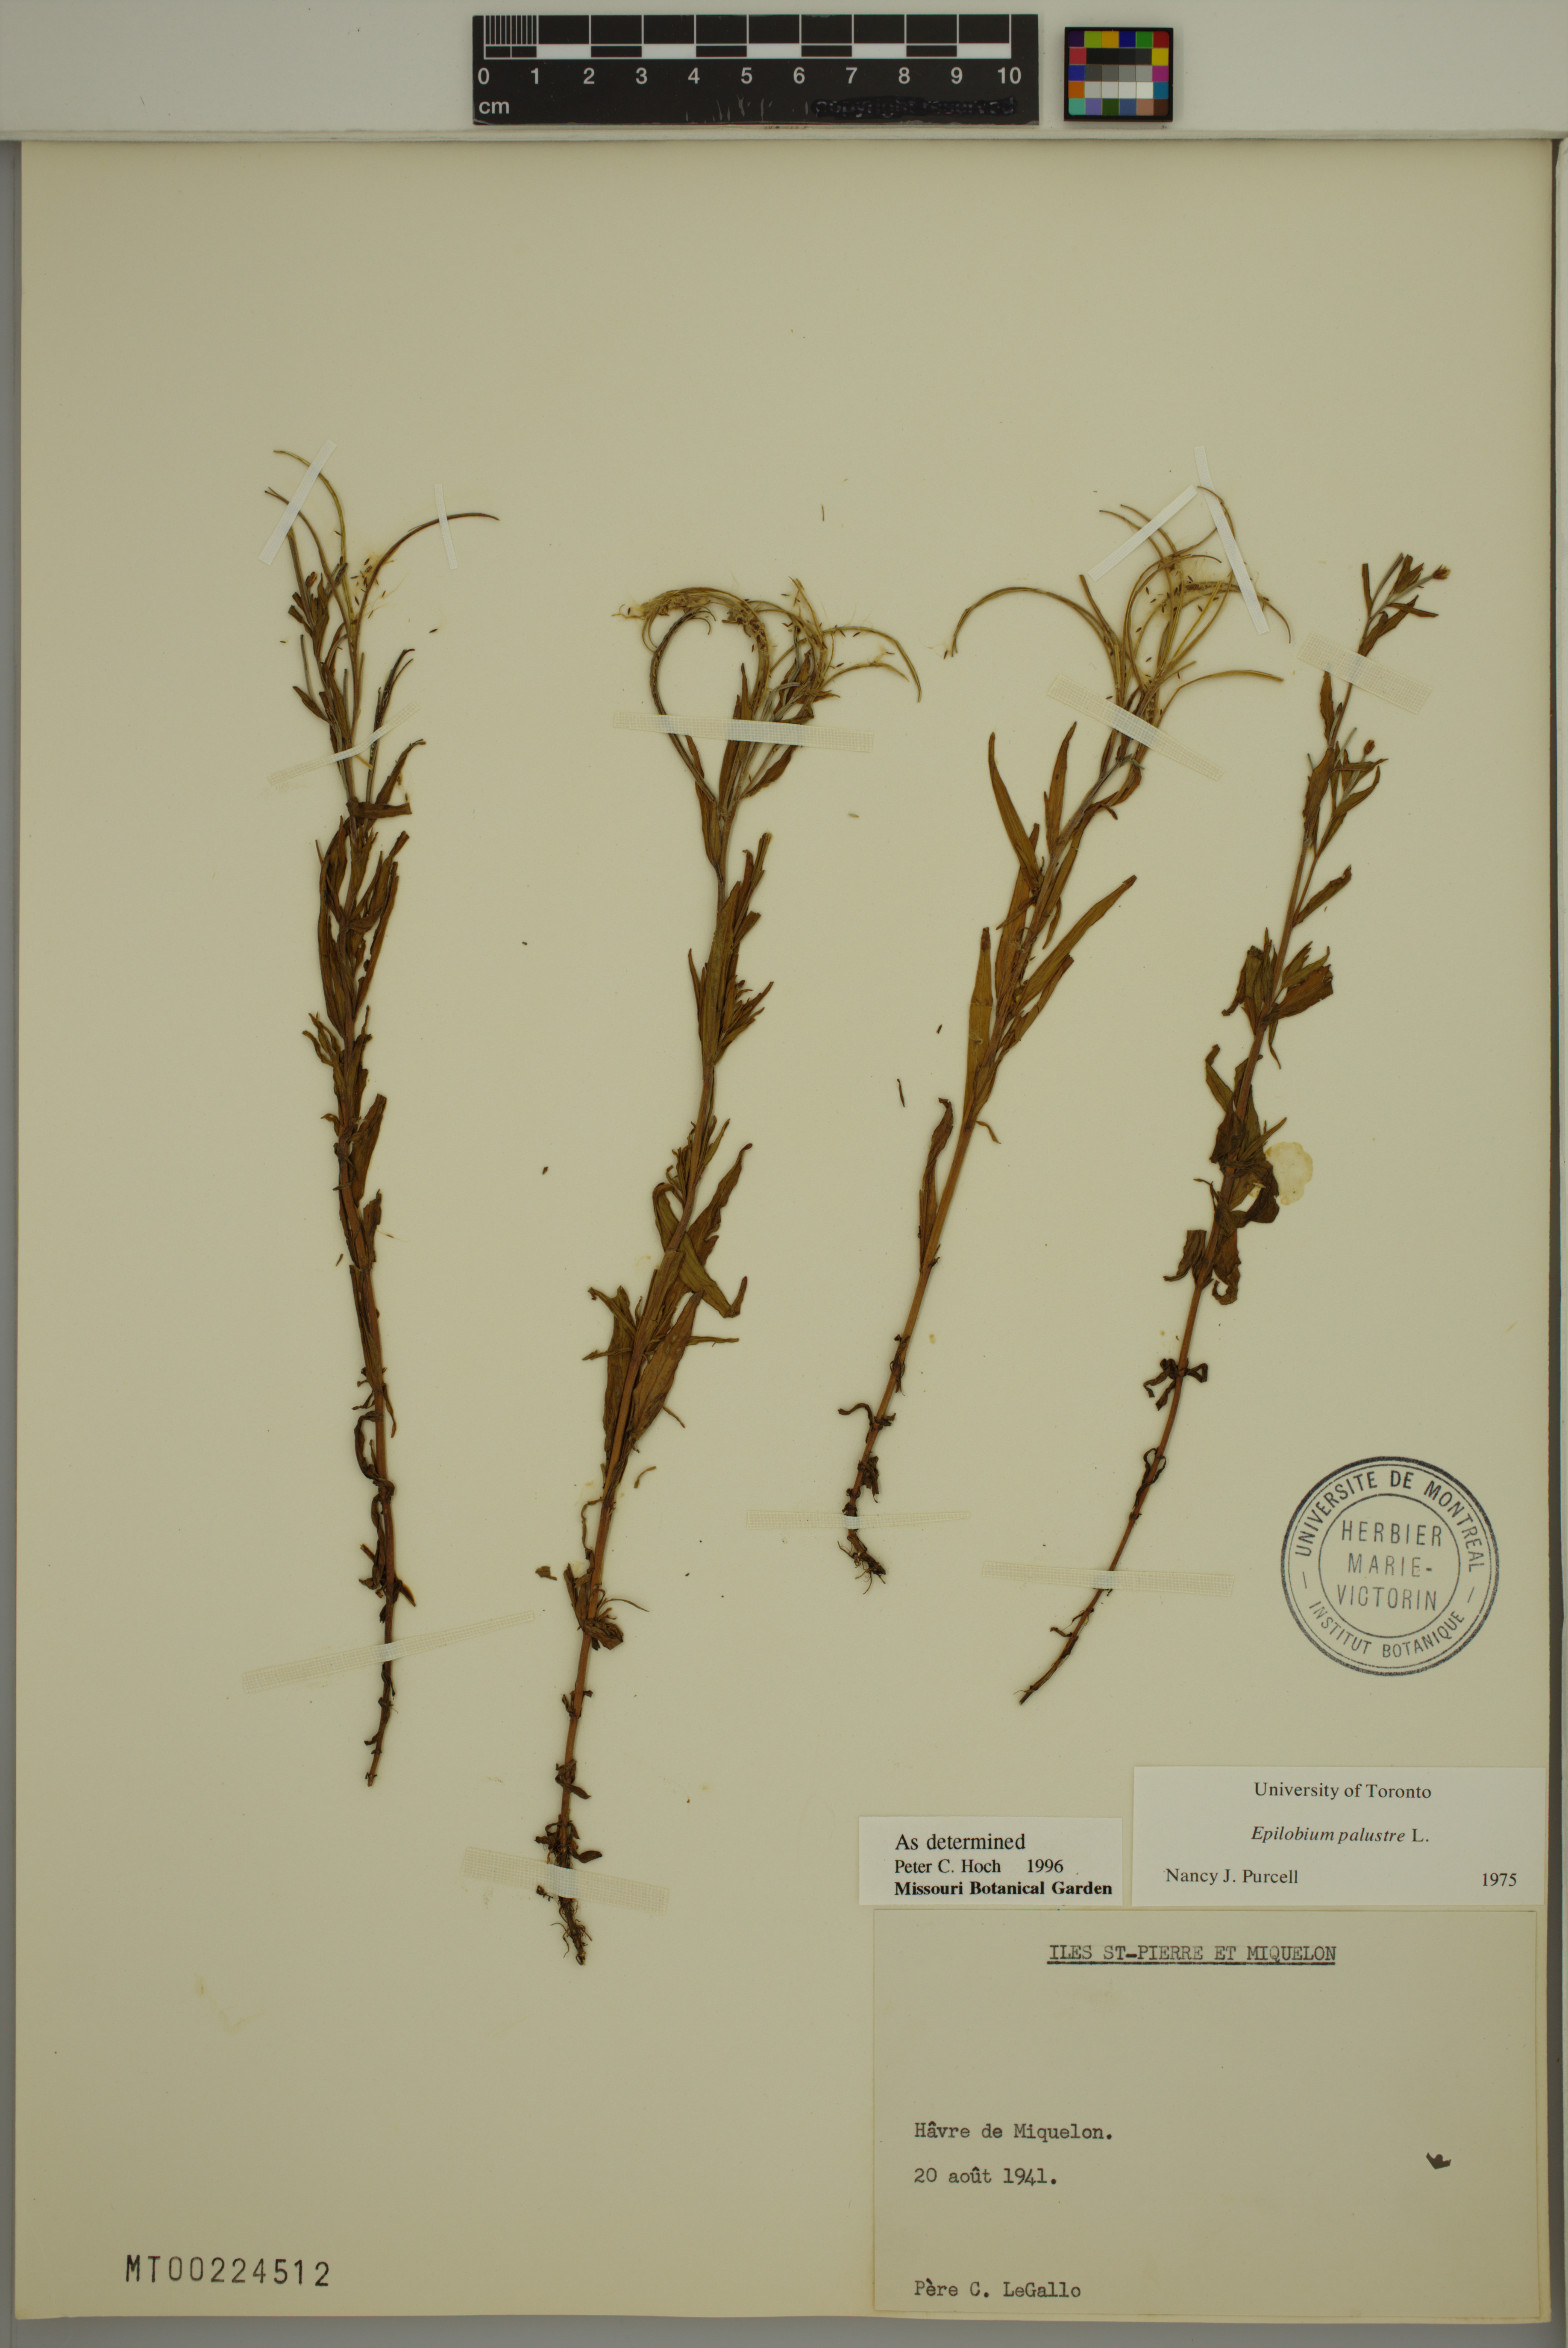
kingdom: Plantae
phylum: Tracheophyta
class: Magnoliopsida
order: Myrtales
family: Onagraceae
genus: Epilobium
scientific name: Epilobium palustre
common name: Marsh willowherb
